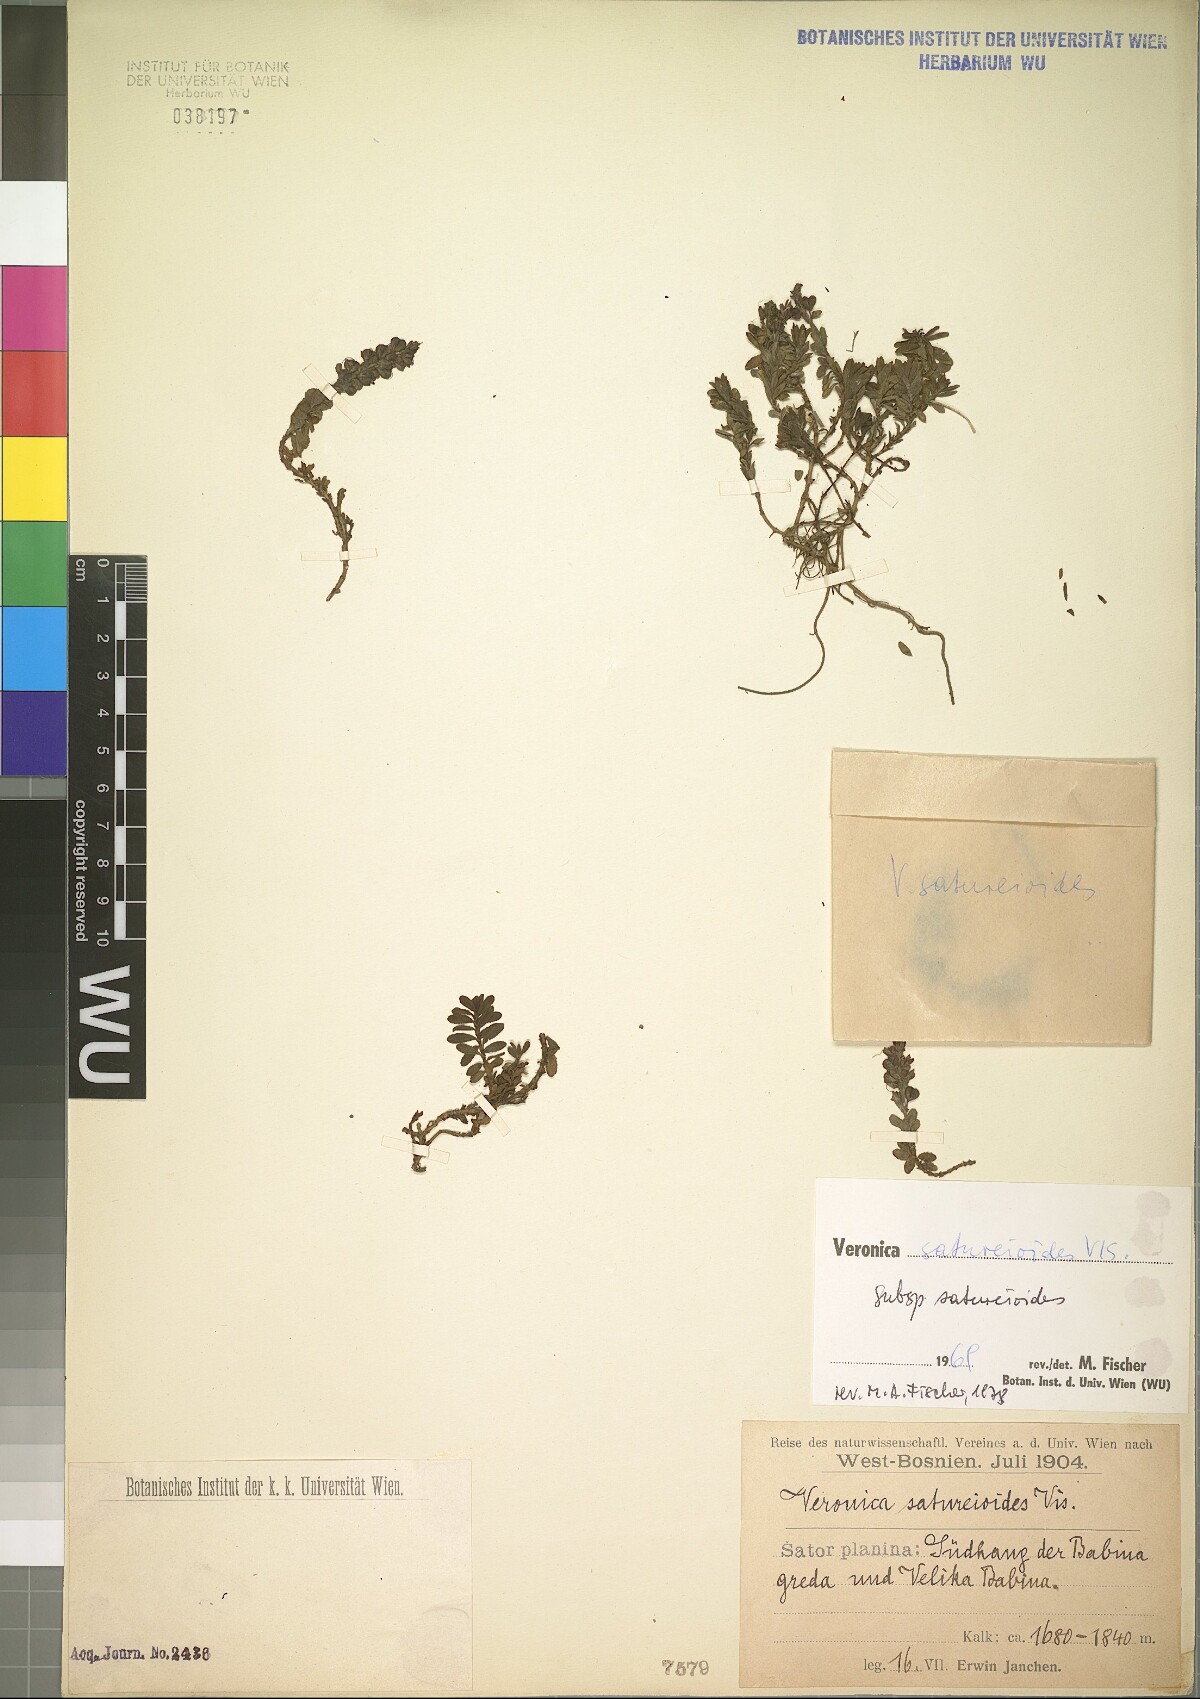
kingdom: Plantae
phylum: Tracheophyta
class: Magnoliopsida
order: Lamiales
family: Plantaginaceae
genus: Veronica
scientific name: Veronica saturejoides
